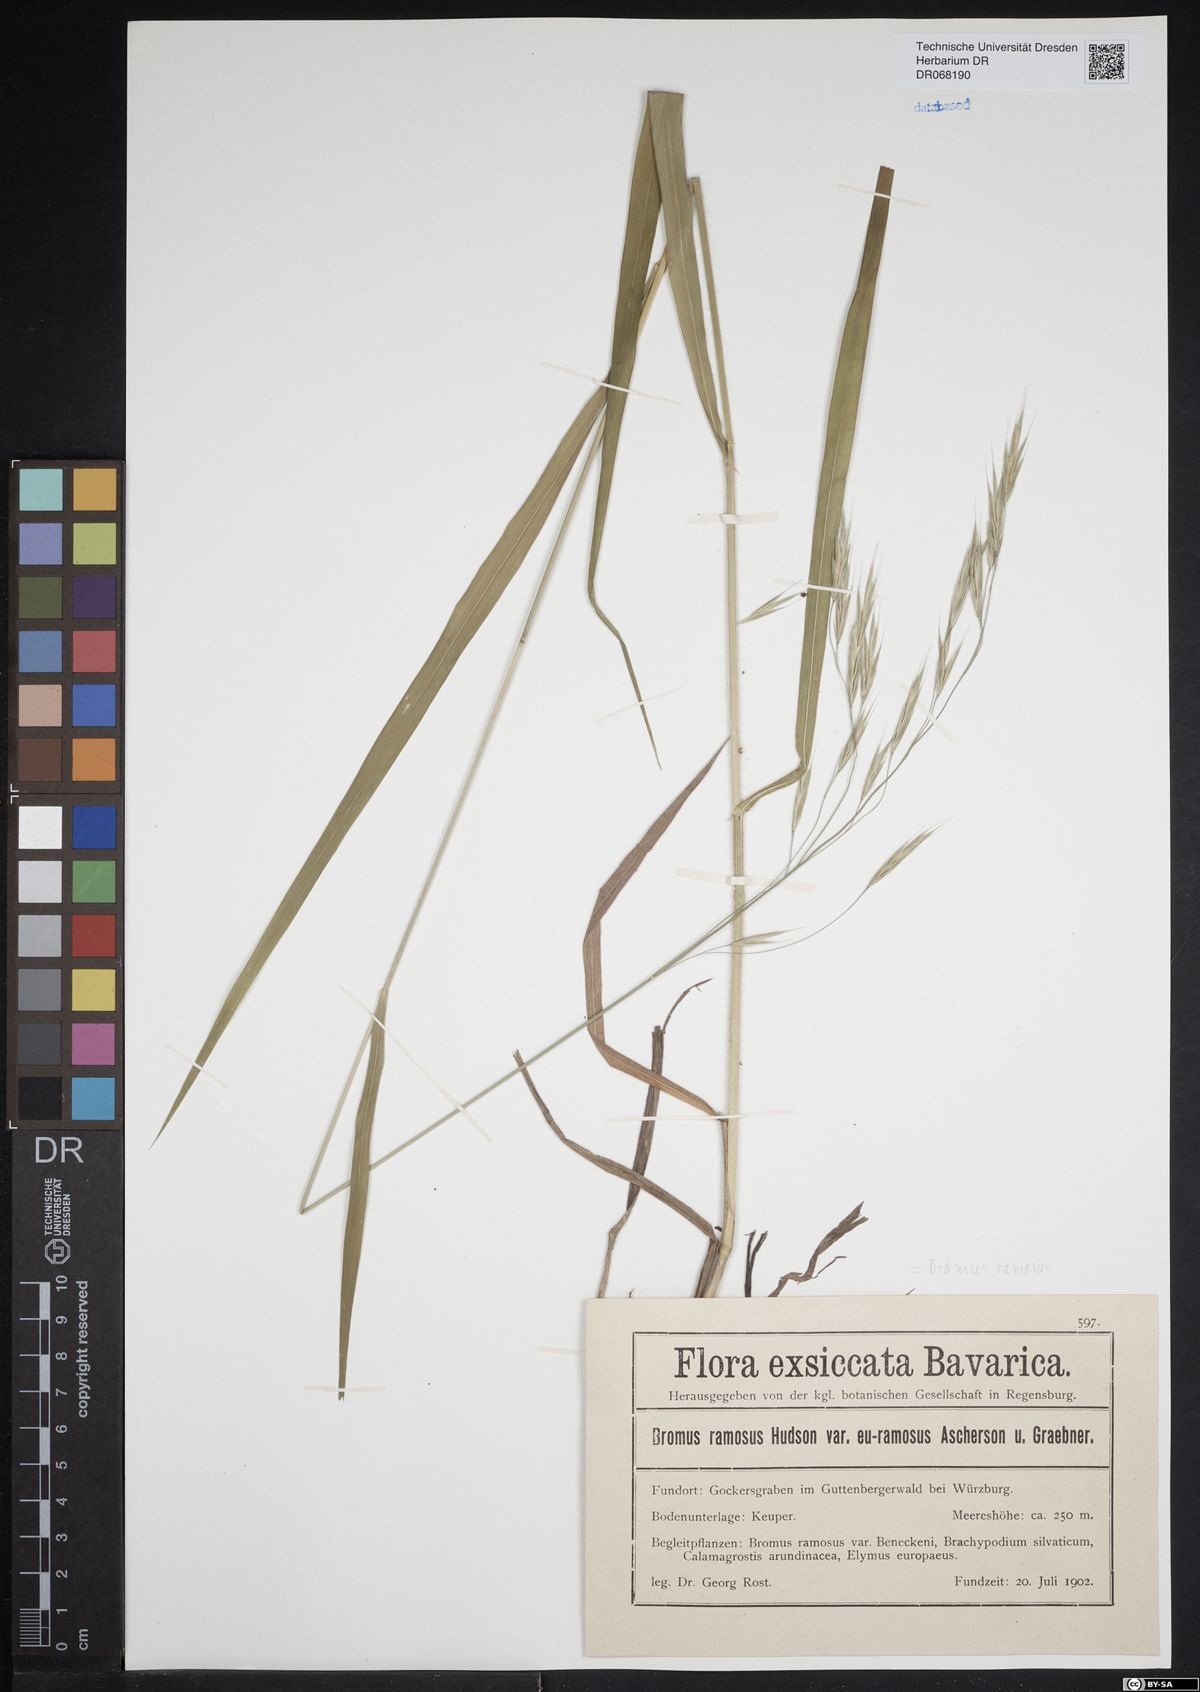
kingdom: Plantae
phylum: Tracheophyta
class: Liliopsida
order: Poales
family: Poaceae
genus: Bromus
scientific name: Bromus ramosus
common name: Hairy brome
